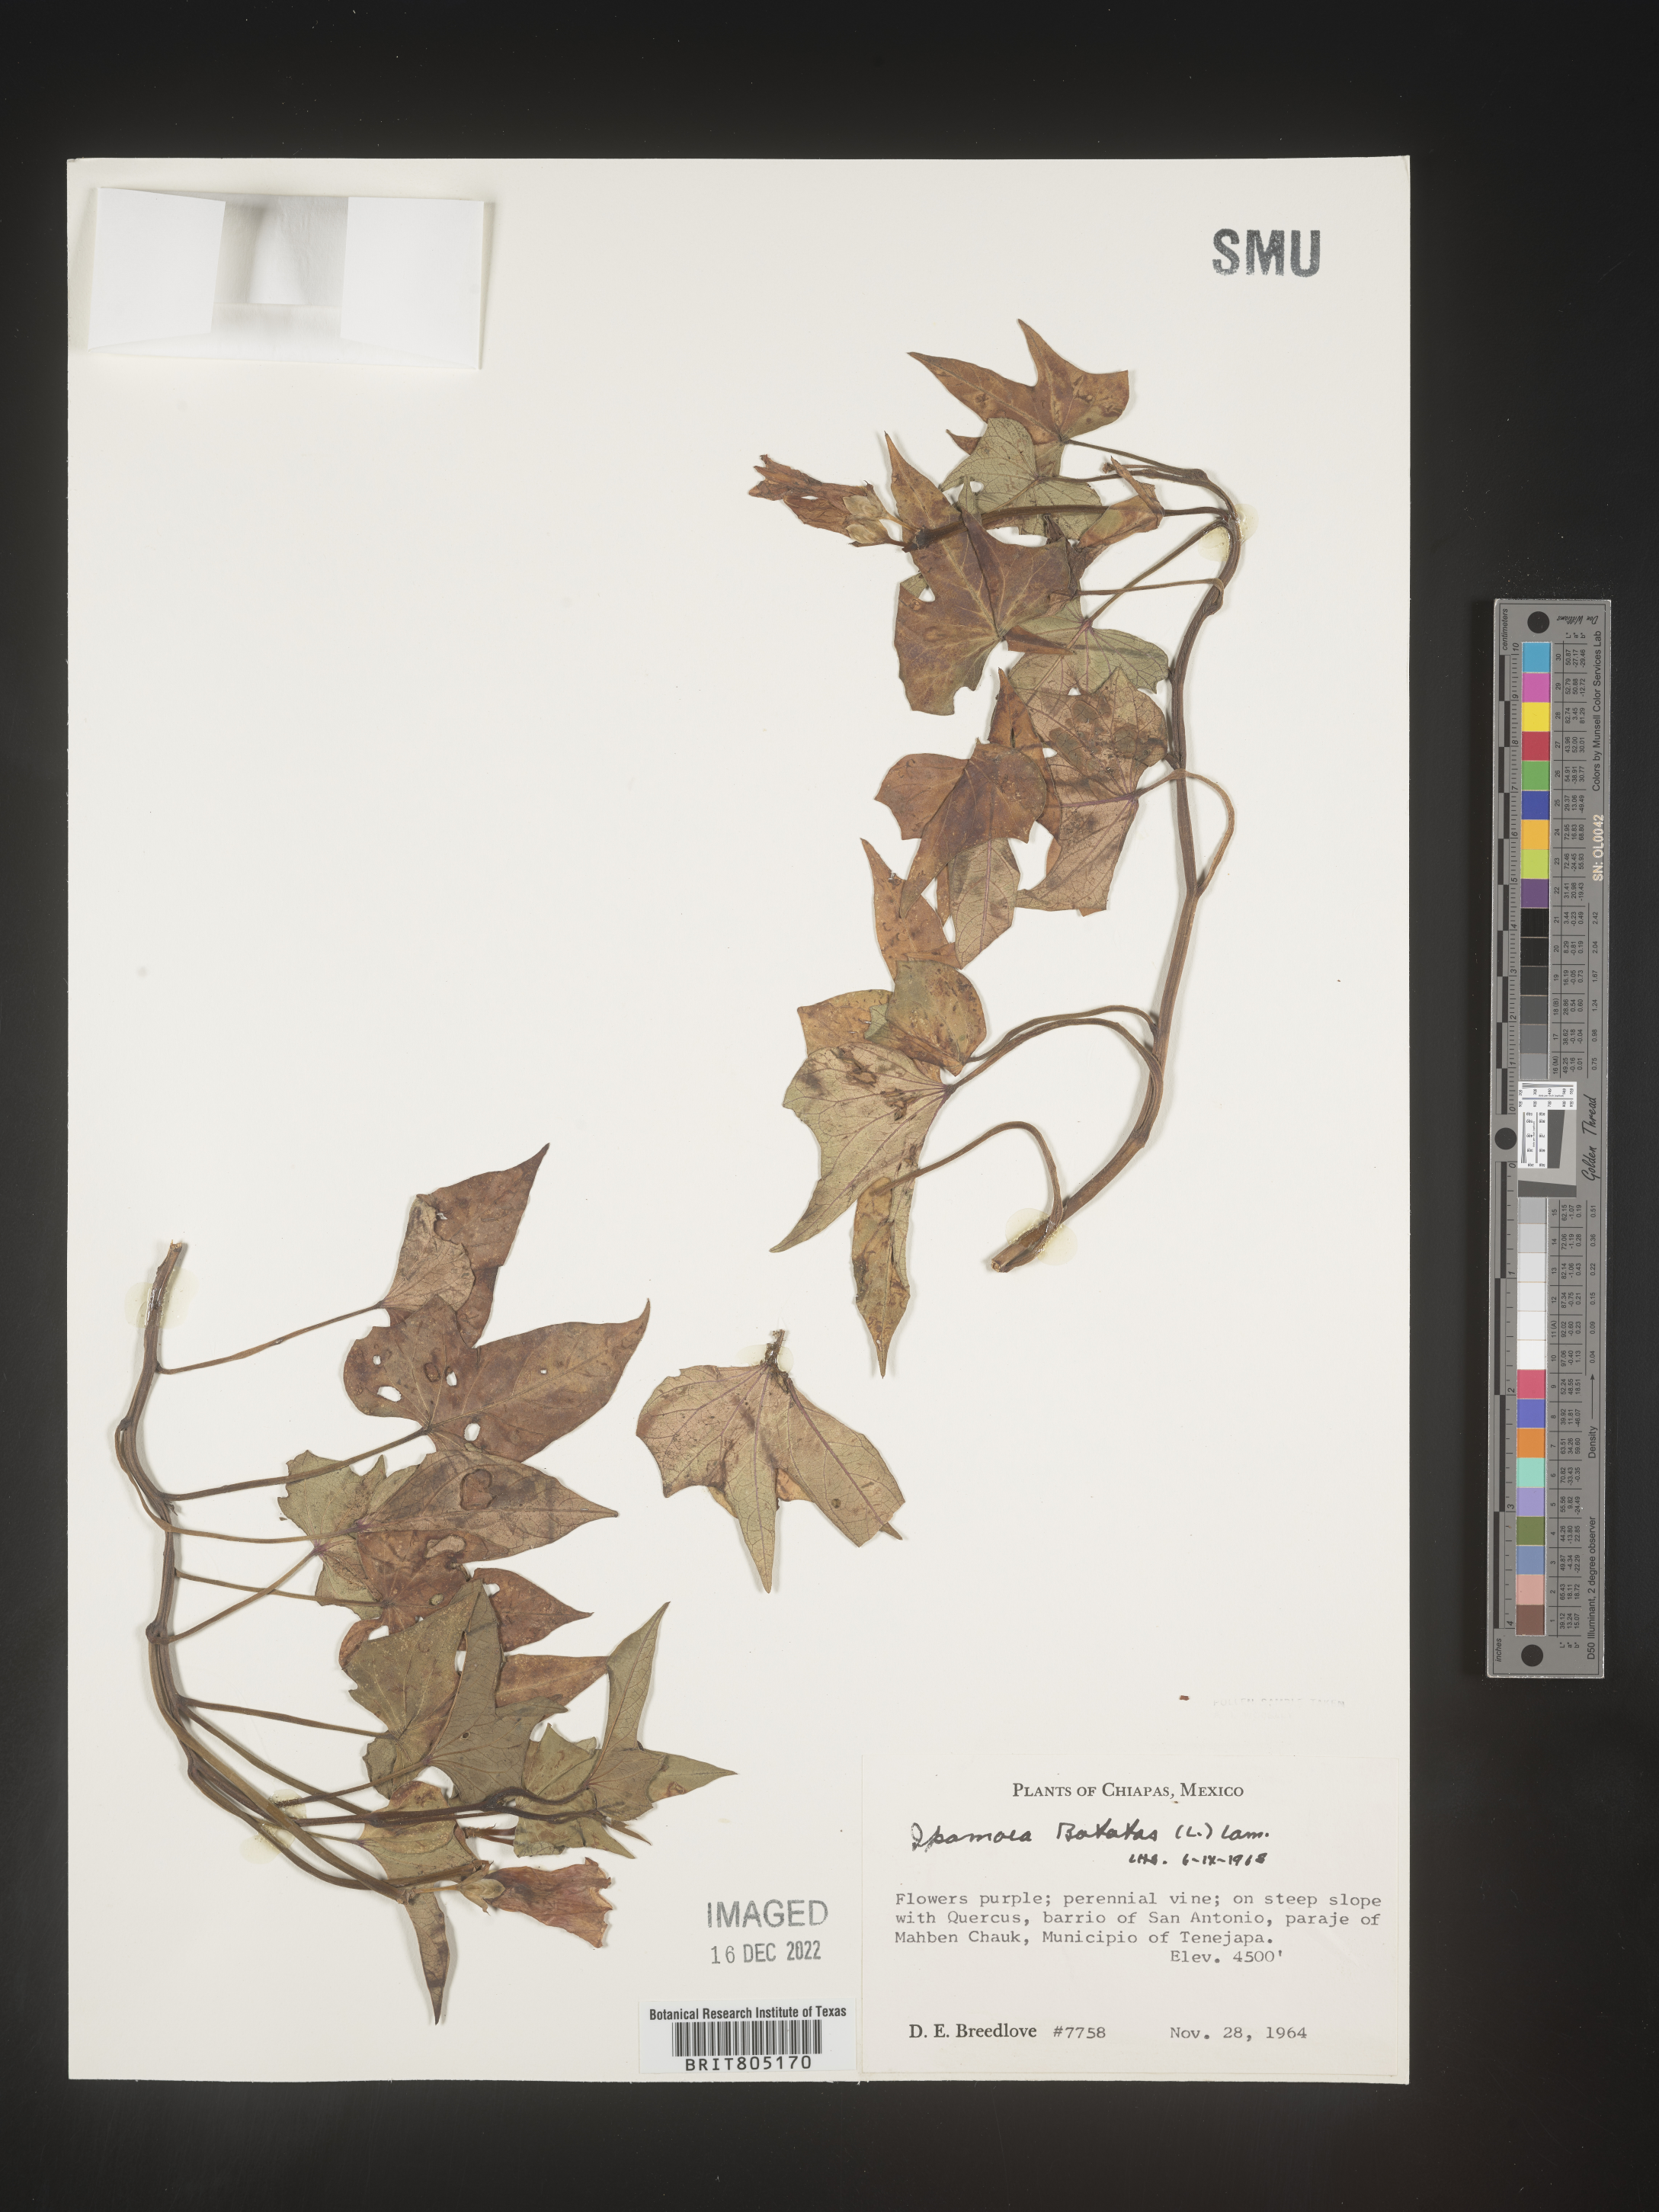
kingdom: Plantae
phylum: Tracheophyta
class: Magnoliopsida
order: Solanales
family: Convolvulaceae
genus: Ipomoea
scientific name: Ipomoea
